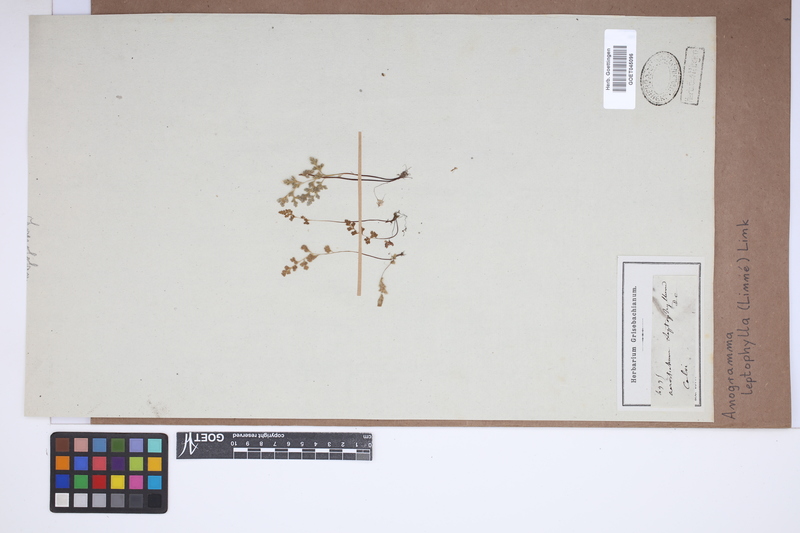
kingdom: Plantae
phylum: Tracheophyta
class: Polypodiopsida
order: Polypodiales
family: Pteridaceae
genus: Anogramma
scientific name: Anogramma leptophylla
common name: Jersey fern
